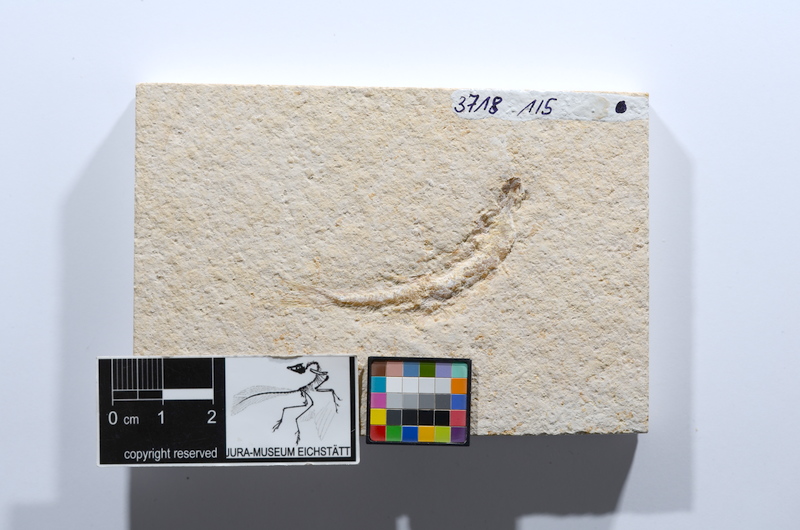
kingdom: Animalia
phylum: Chordata
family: Ascalaboidae
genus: Tharsis
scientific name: Tharsis dubius
